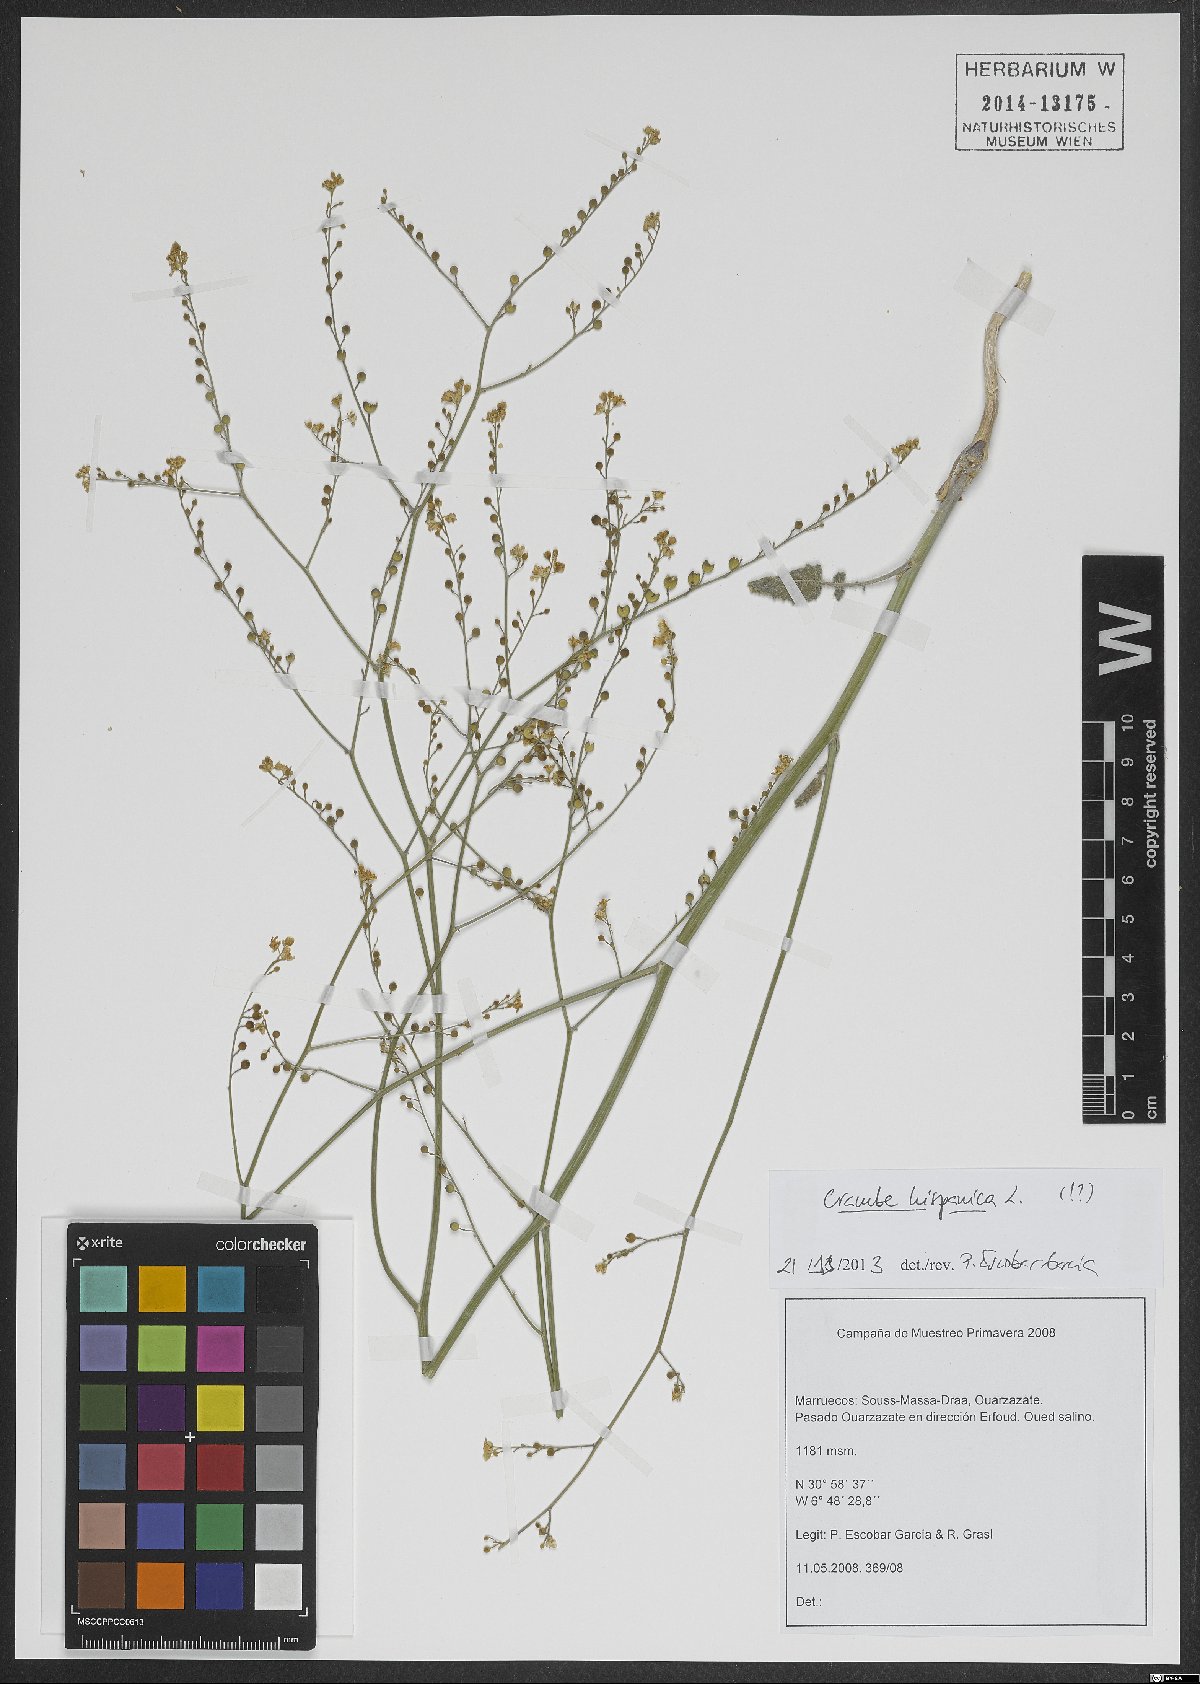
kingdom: Plantae
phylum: Tracheophyta
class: Magnoliopsida
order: Brassicales
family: Brassicaceae
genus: Crambe
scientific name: Crambe hispanica
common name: Abyssinian mustard
